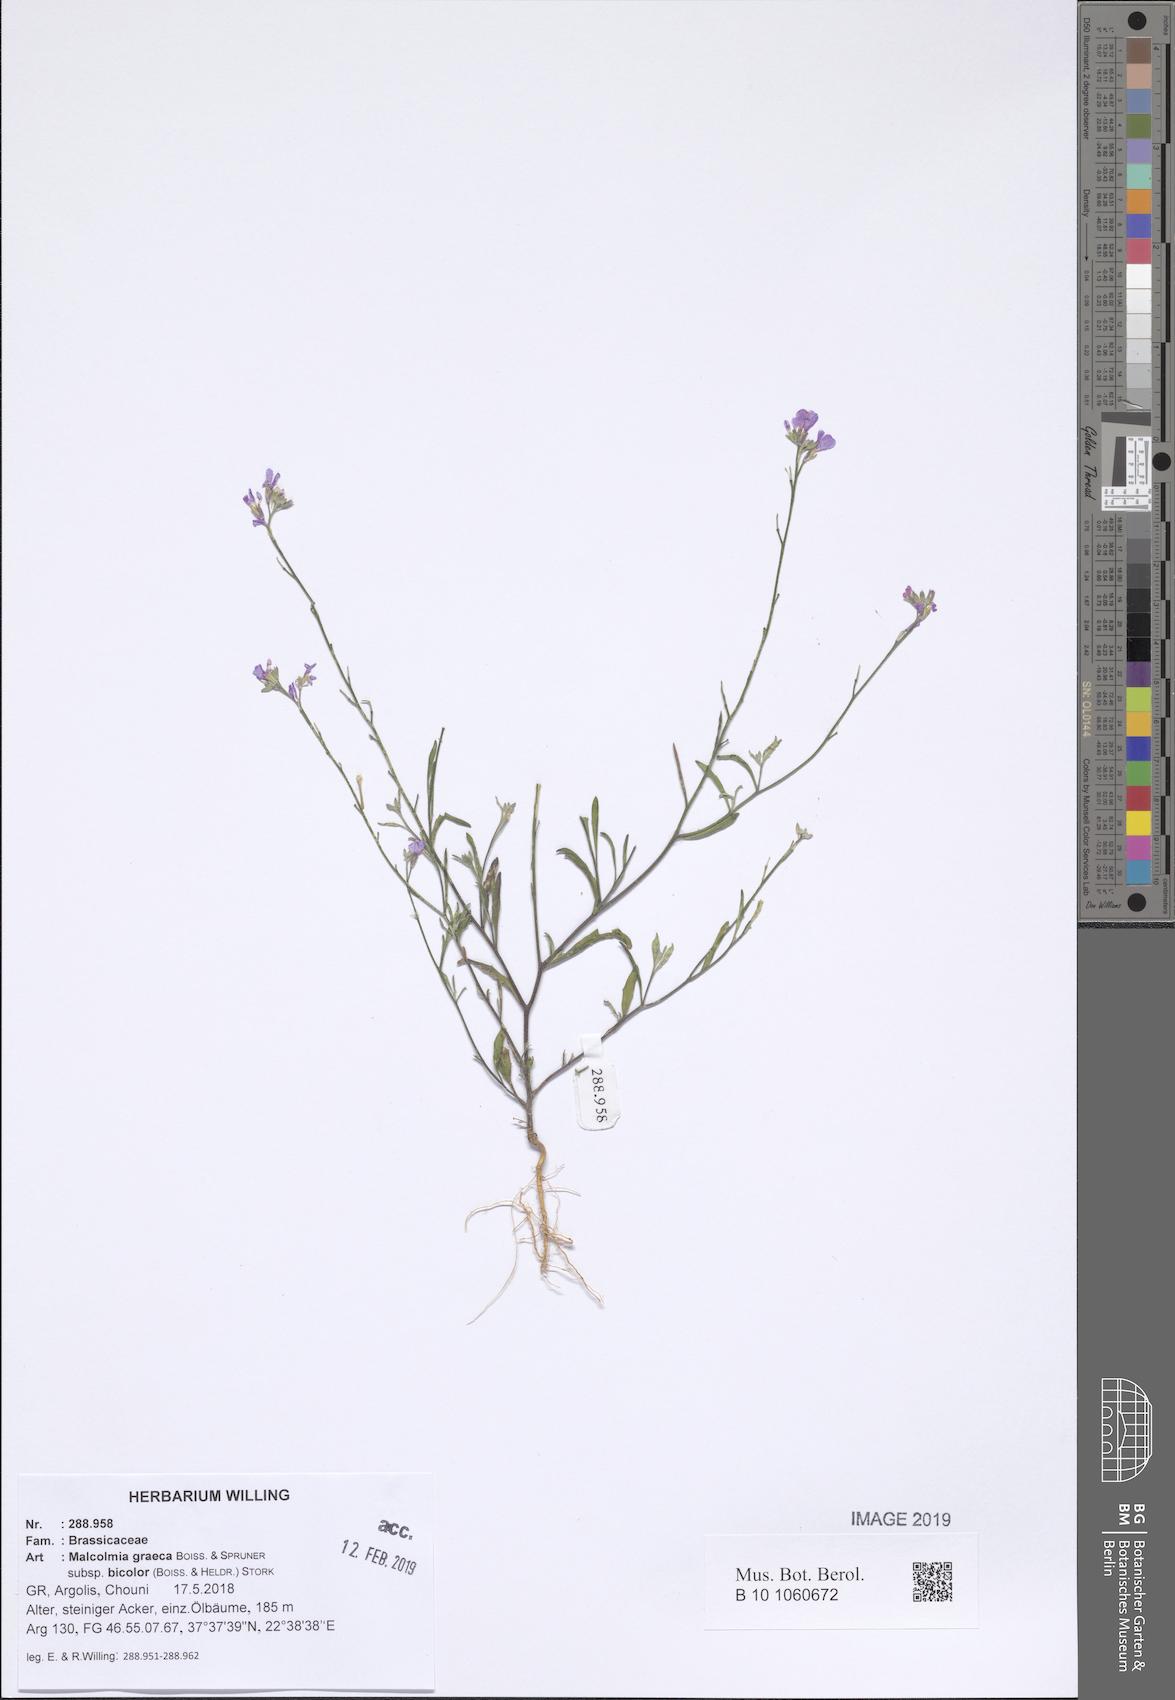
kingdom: Plantae
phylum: Tracheophyta
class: Magnoliopsida
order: Brassicales
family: Brassicaceae
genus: Malcolmia
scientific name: Malcolmia graeca
